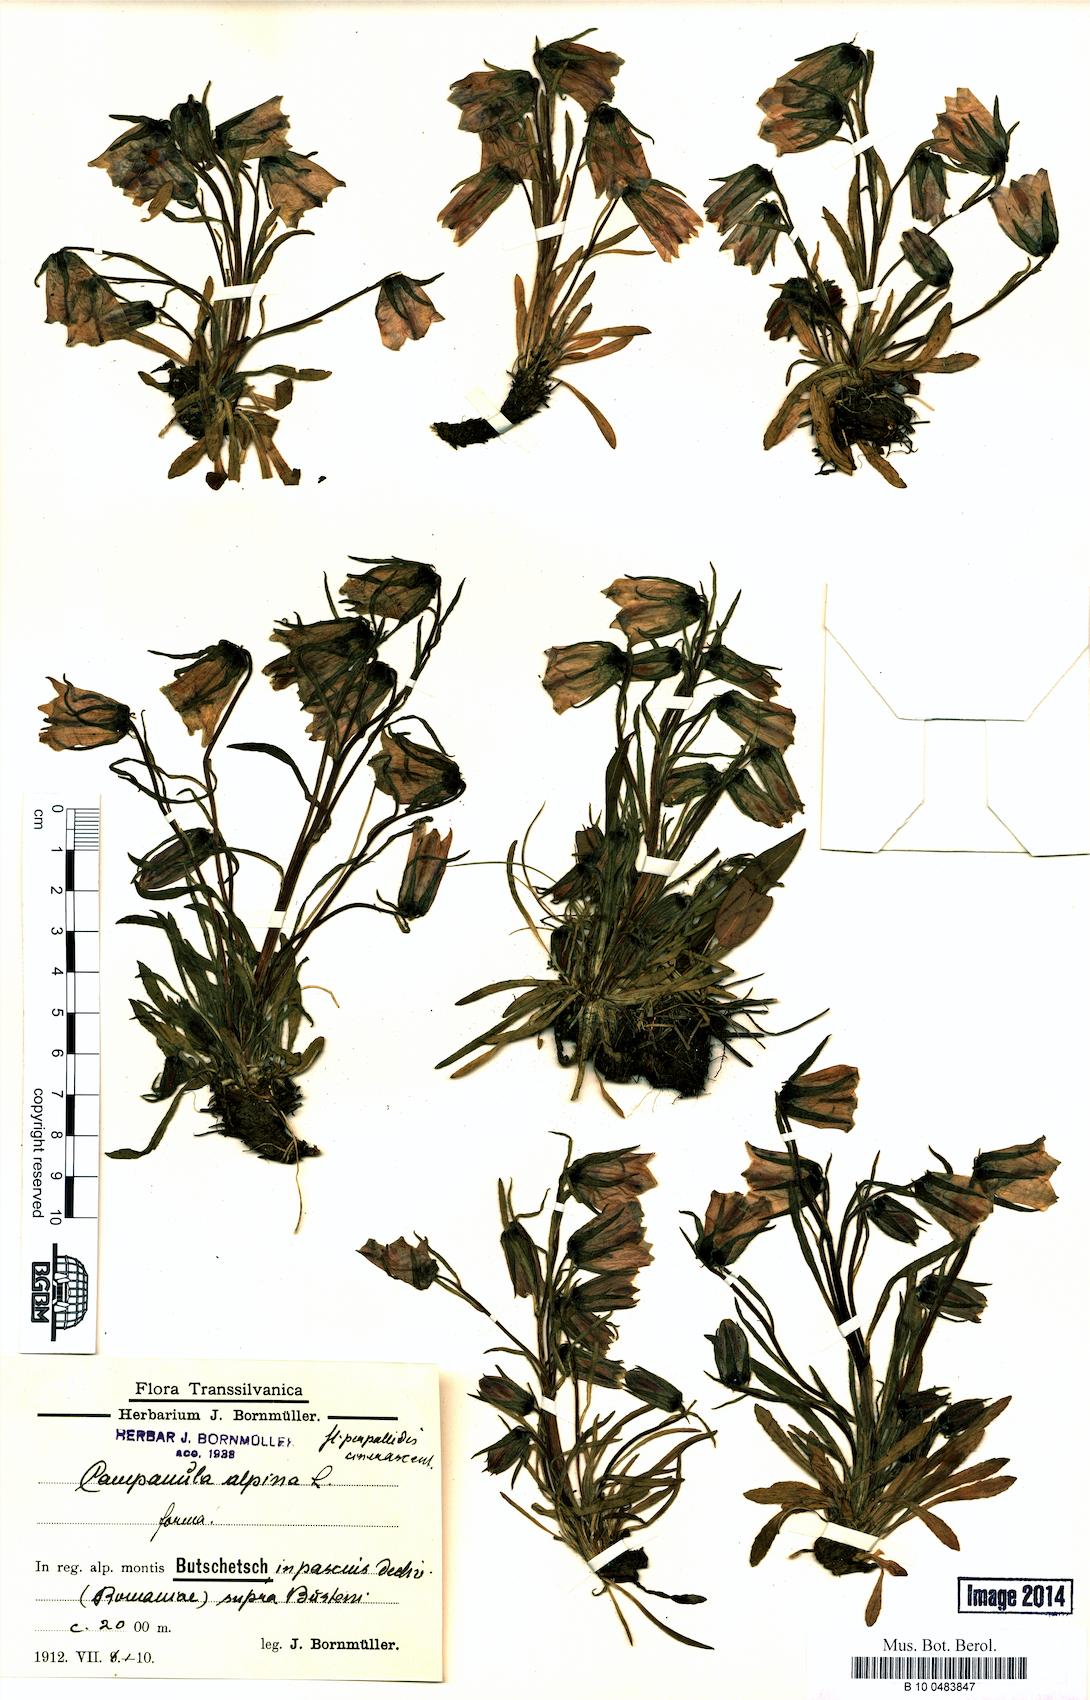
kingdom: Plantae
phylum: Tracheophyta
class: Magnoliopsida
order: Asterales
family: Campanulaceae
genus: Campanula
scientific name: Campanula alpina
